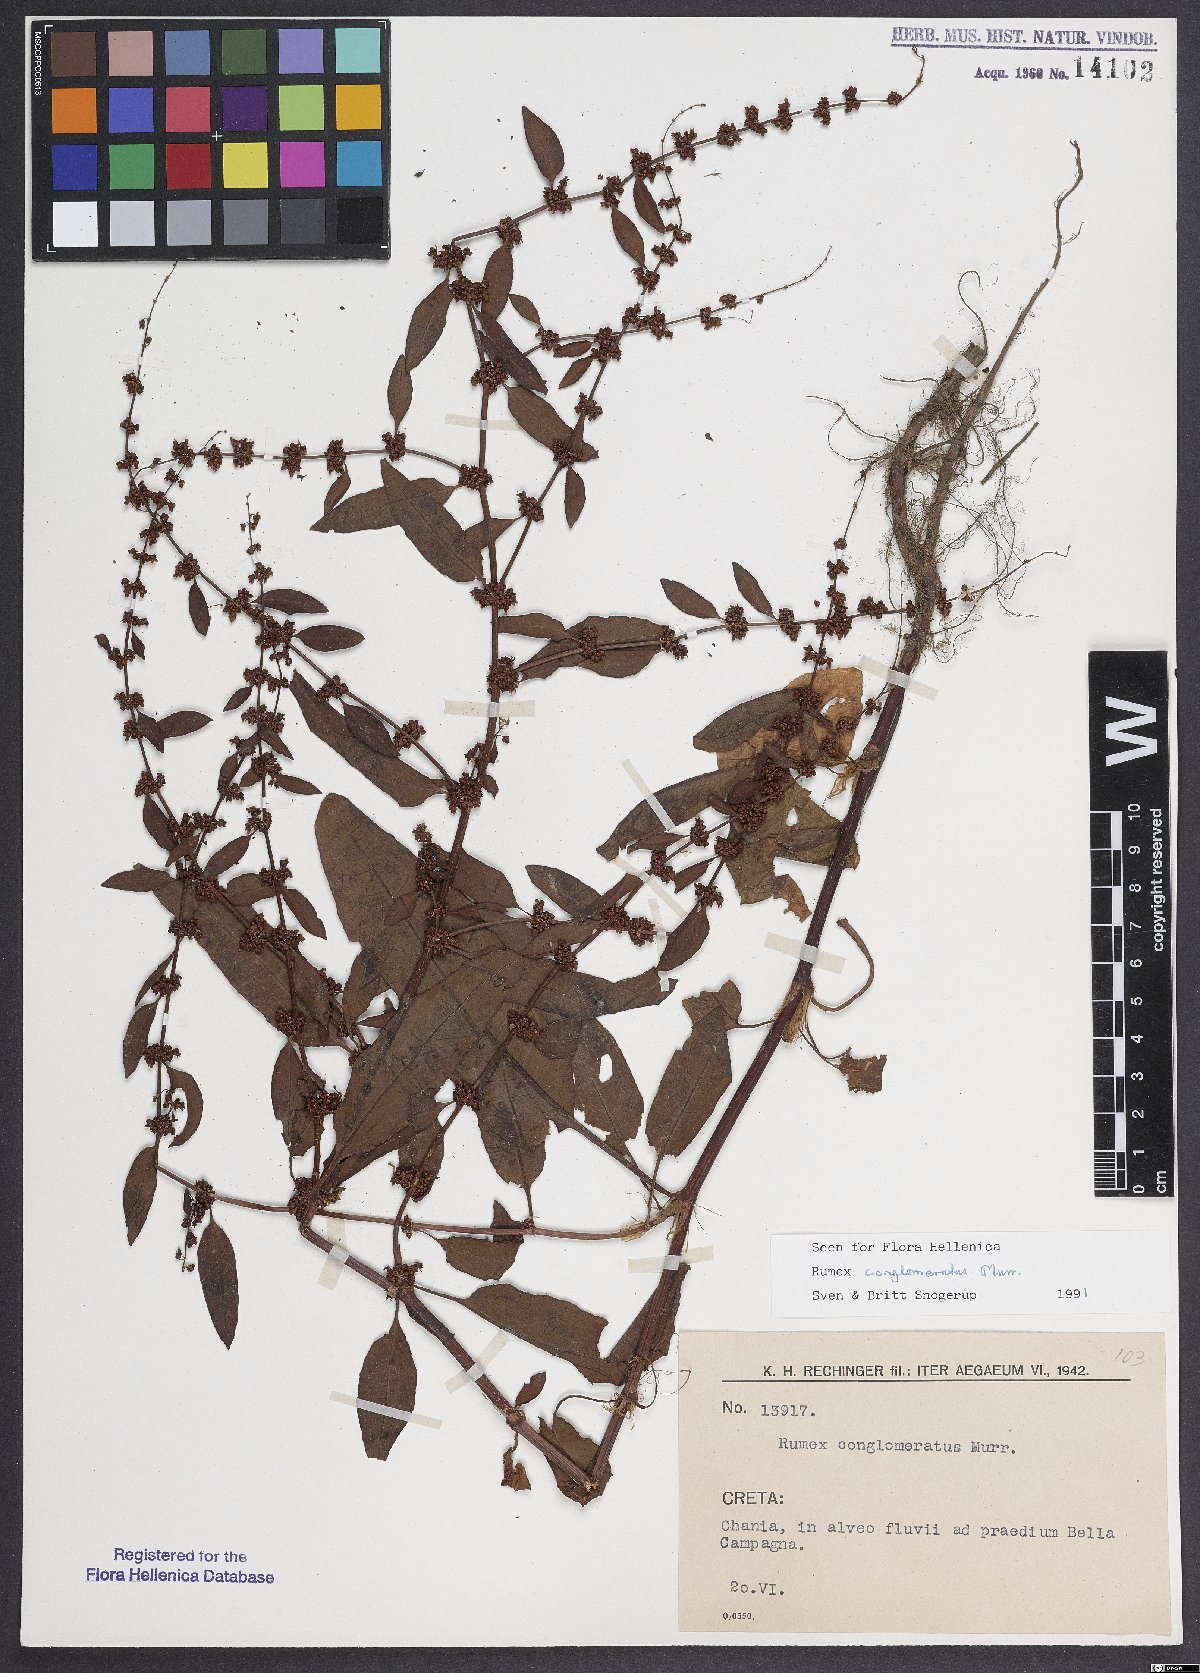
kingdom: Plantae
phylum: Tracheophyta
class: Magnoliopsida
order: Caryophyllales
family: Polygonaceae
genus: Rumex
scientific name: Rumex conglomeratus
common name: Clustered dock
